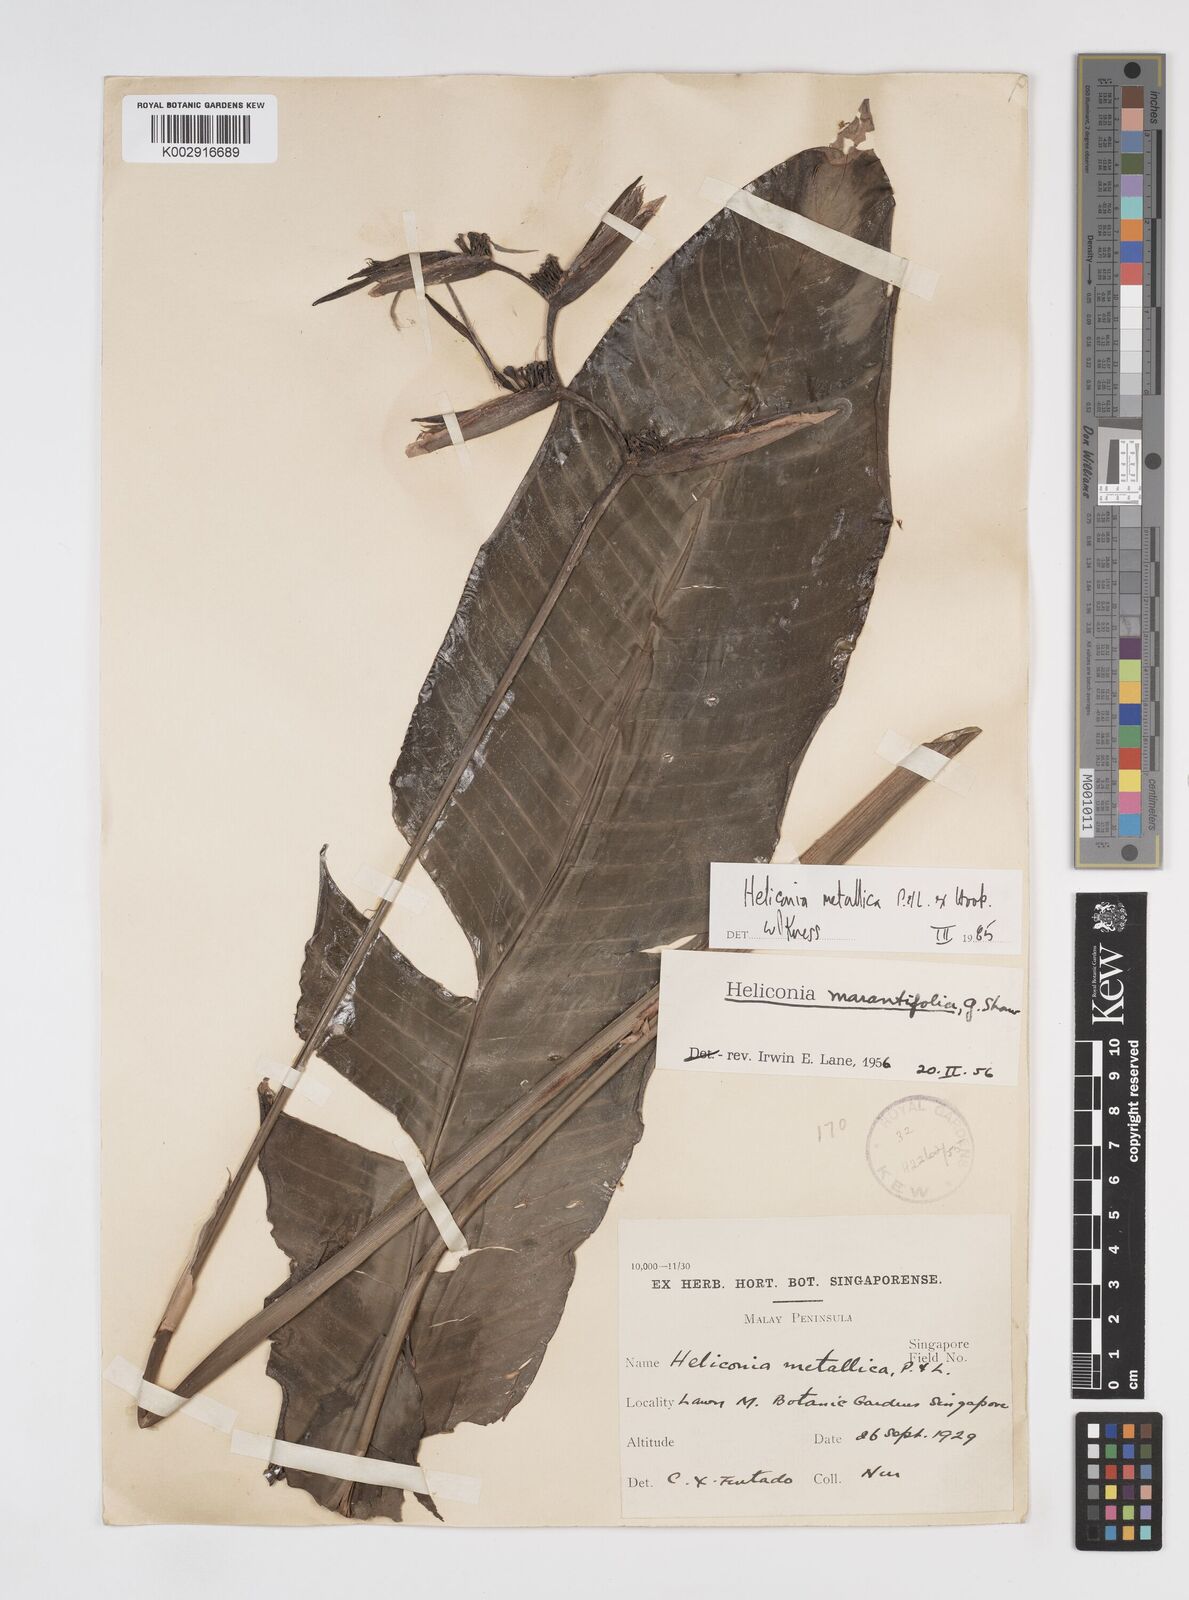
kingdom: Plantae
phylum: Tracheophyta
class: Liliopsida
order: Zingiberales
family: Heliconiaceae
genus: Heliconia
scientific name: Heliconia metallica
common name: Shining bird of paradise
